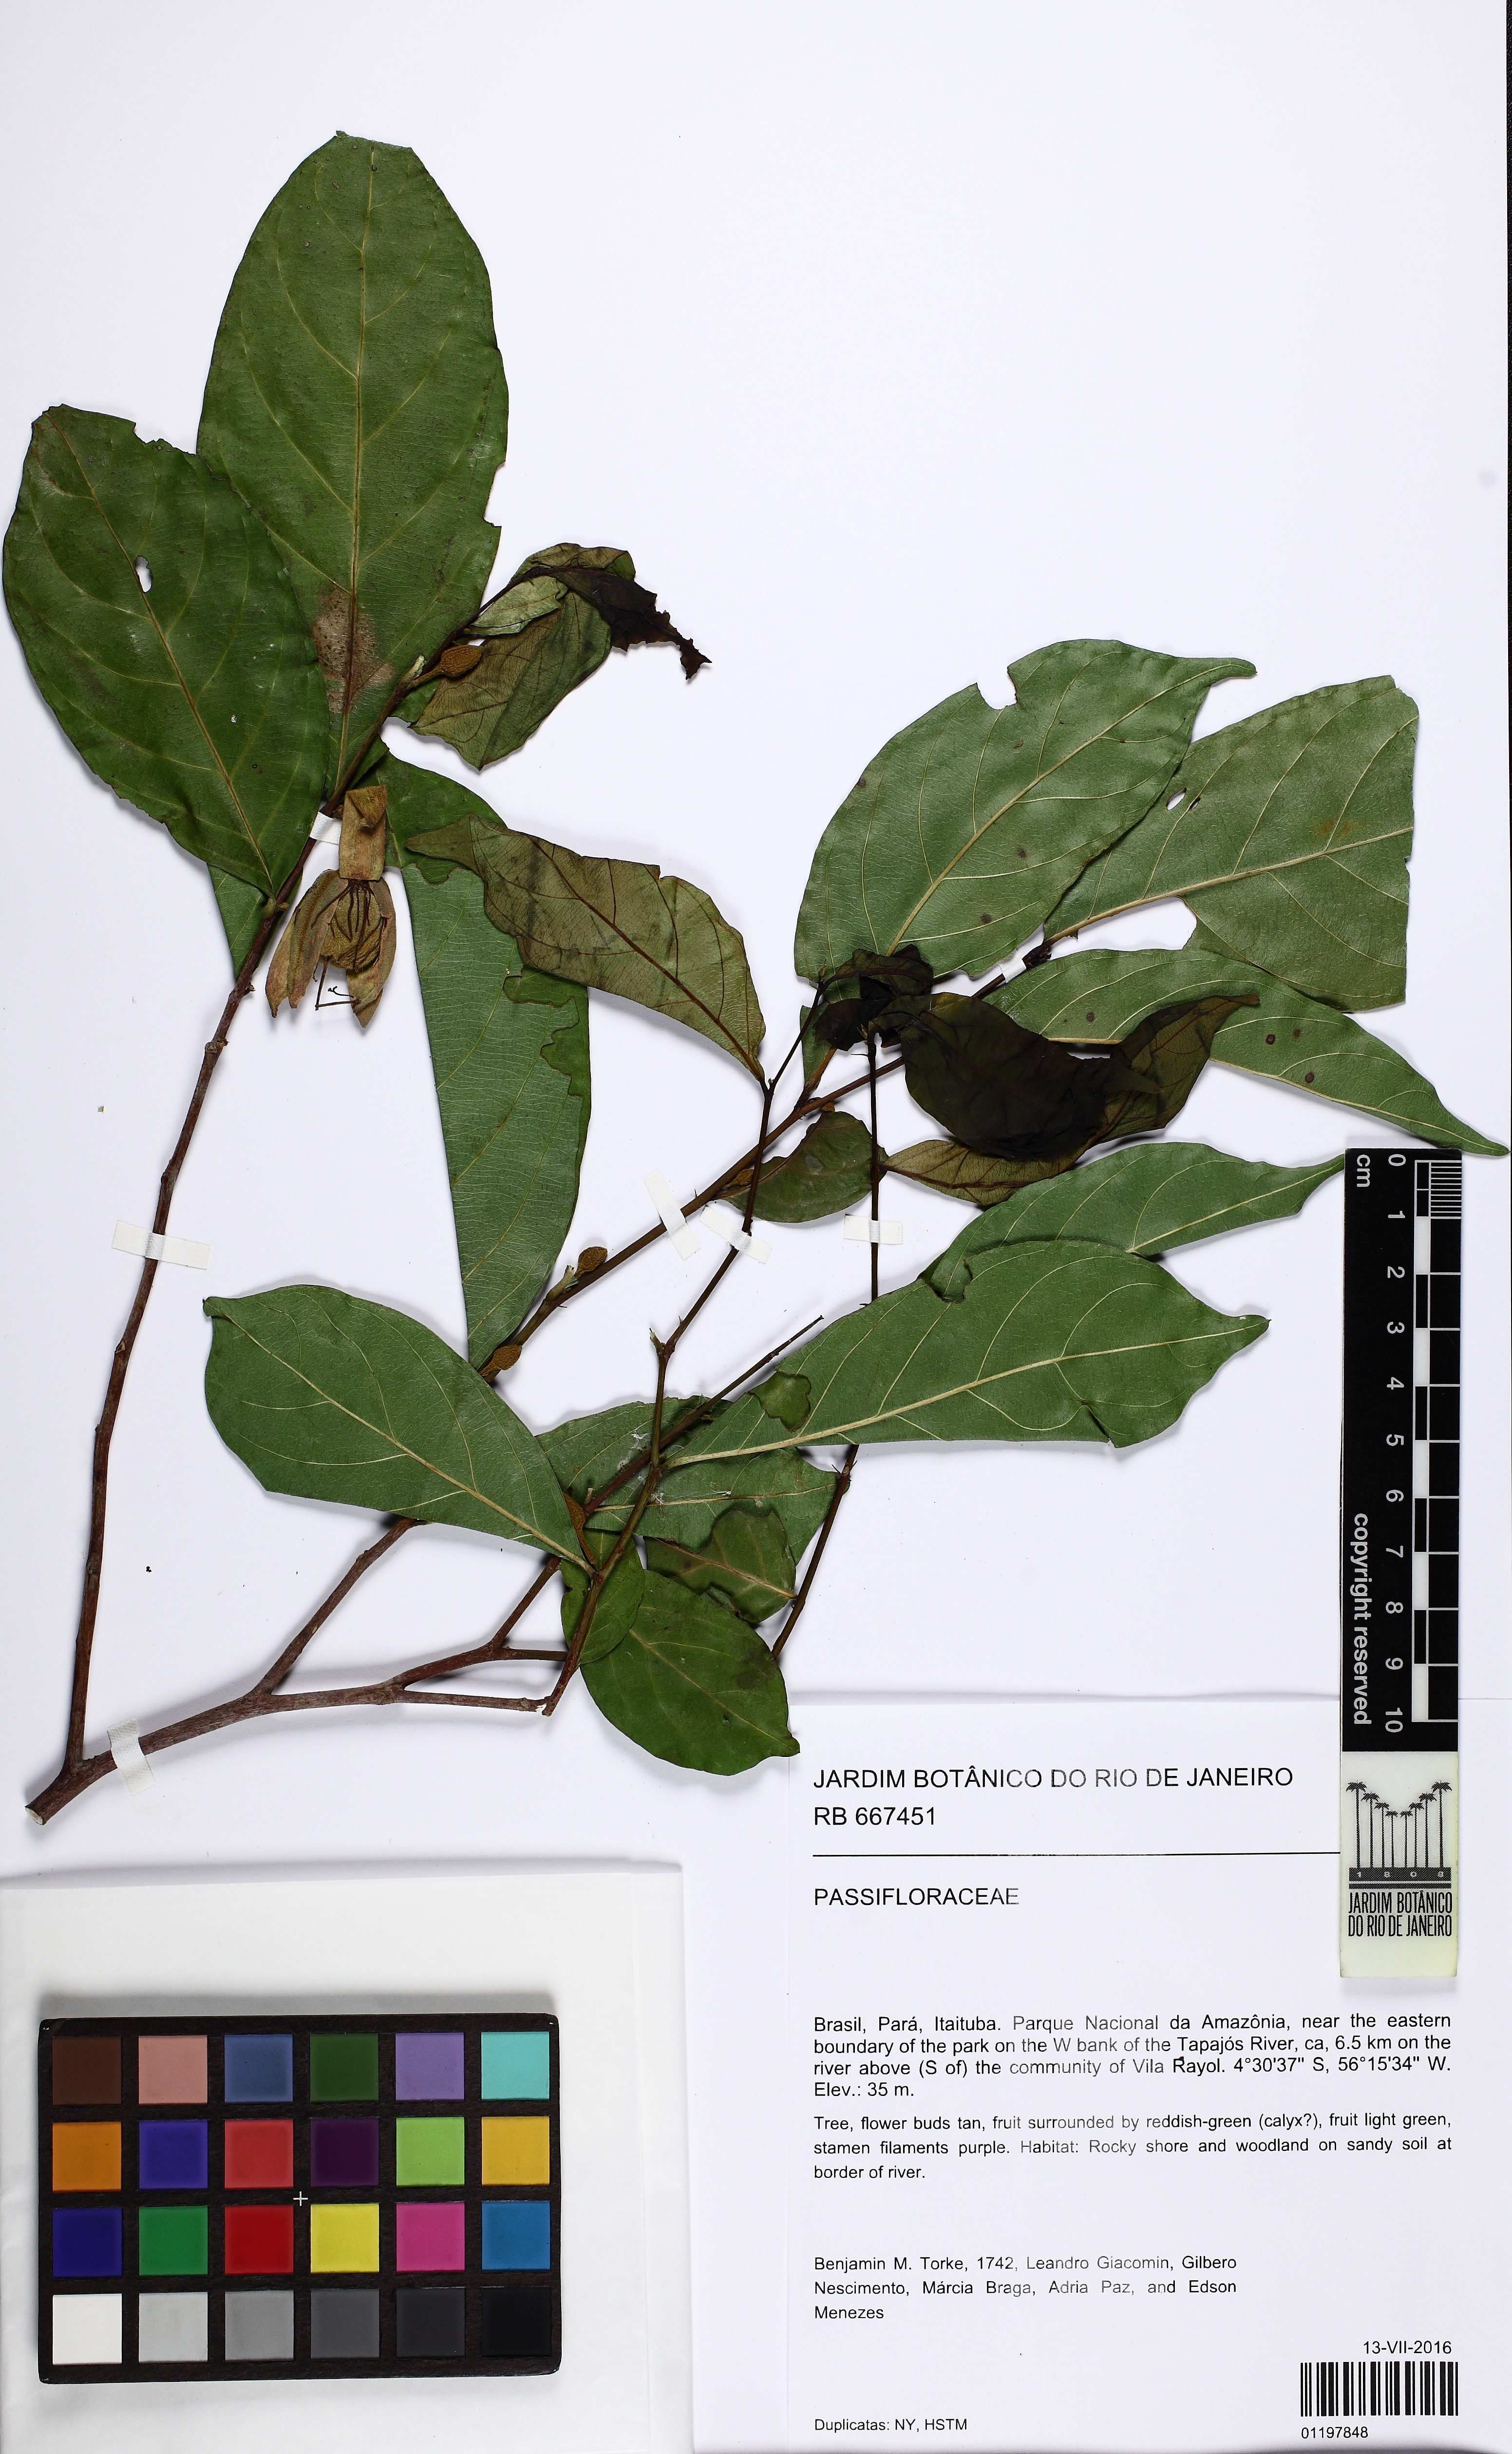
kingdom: Plantae
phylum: Tracheophyta
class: Magnoliopsida
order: Malpighiales
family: Passifloraceae
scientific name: Passifloraceae
